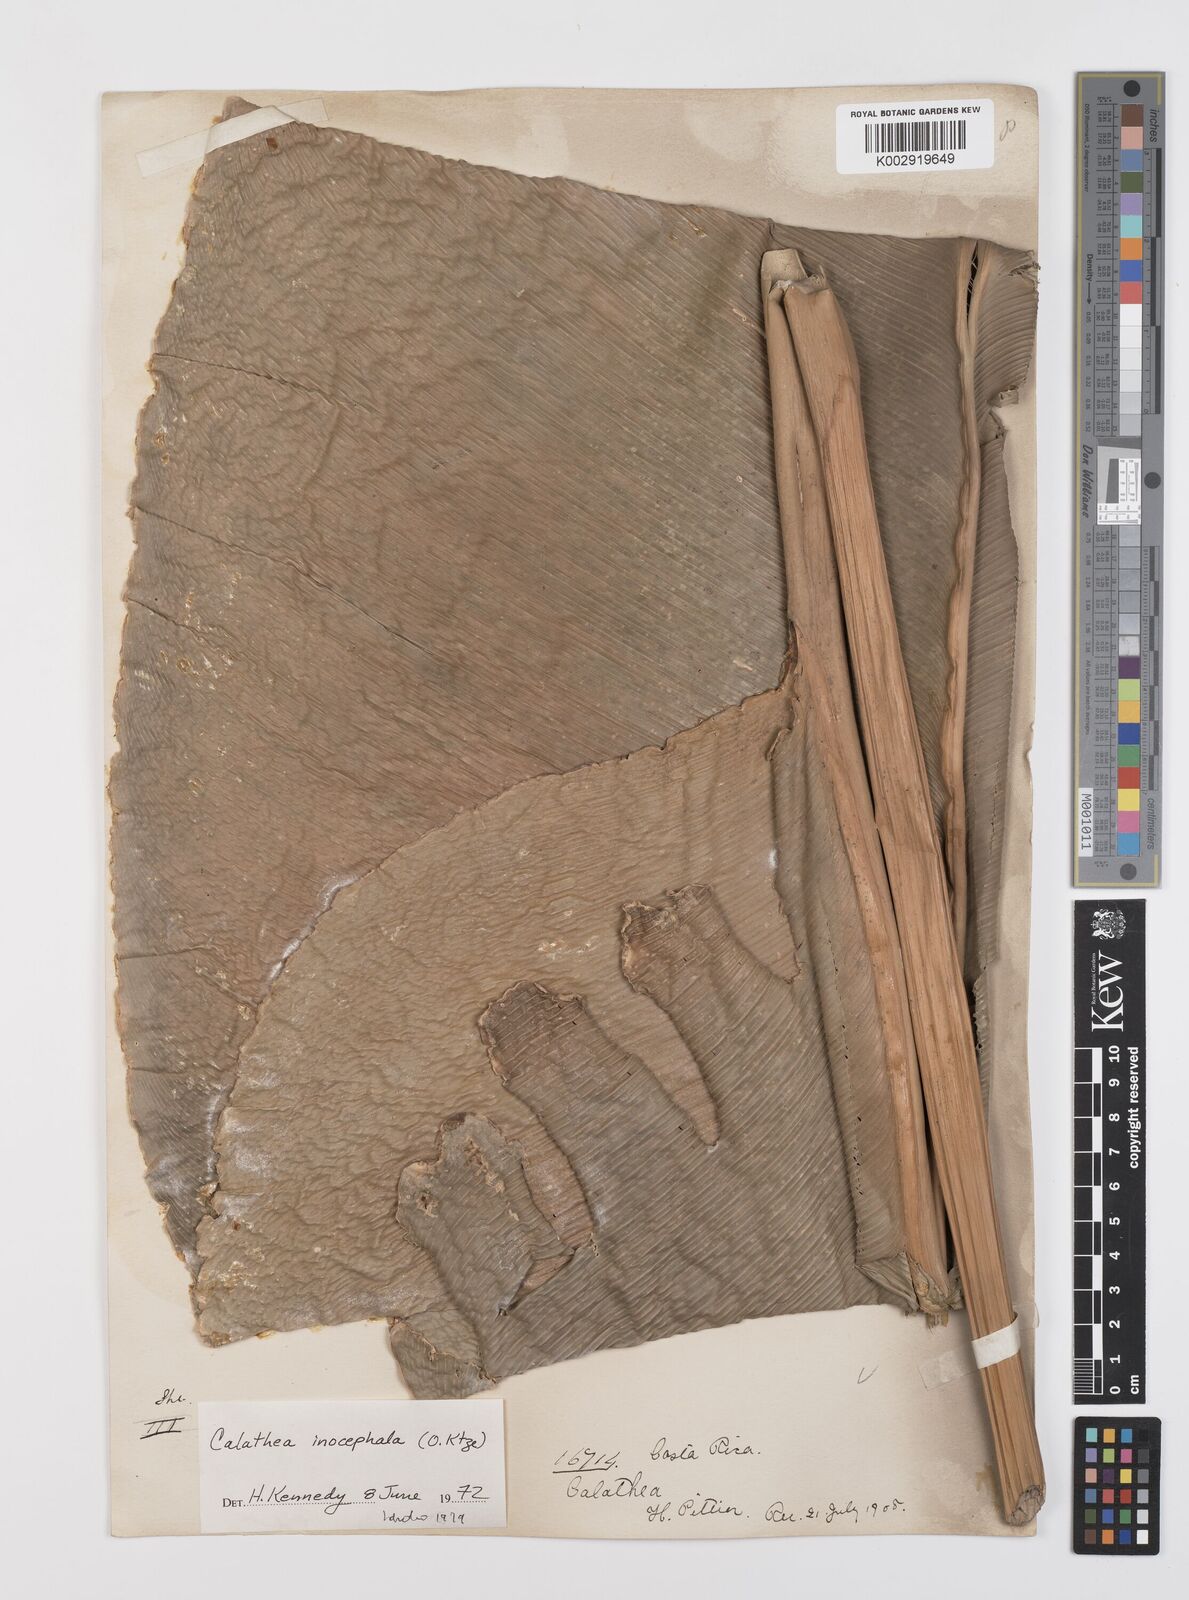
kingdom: Plantae
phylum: Tracheophyta
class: Liliopsida
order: Zingiberales
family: Marantaceae
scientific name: Marantaceae
